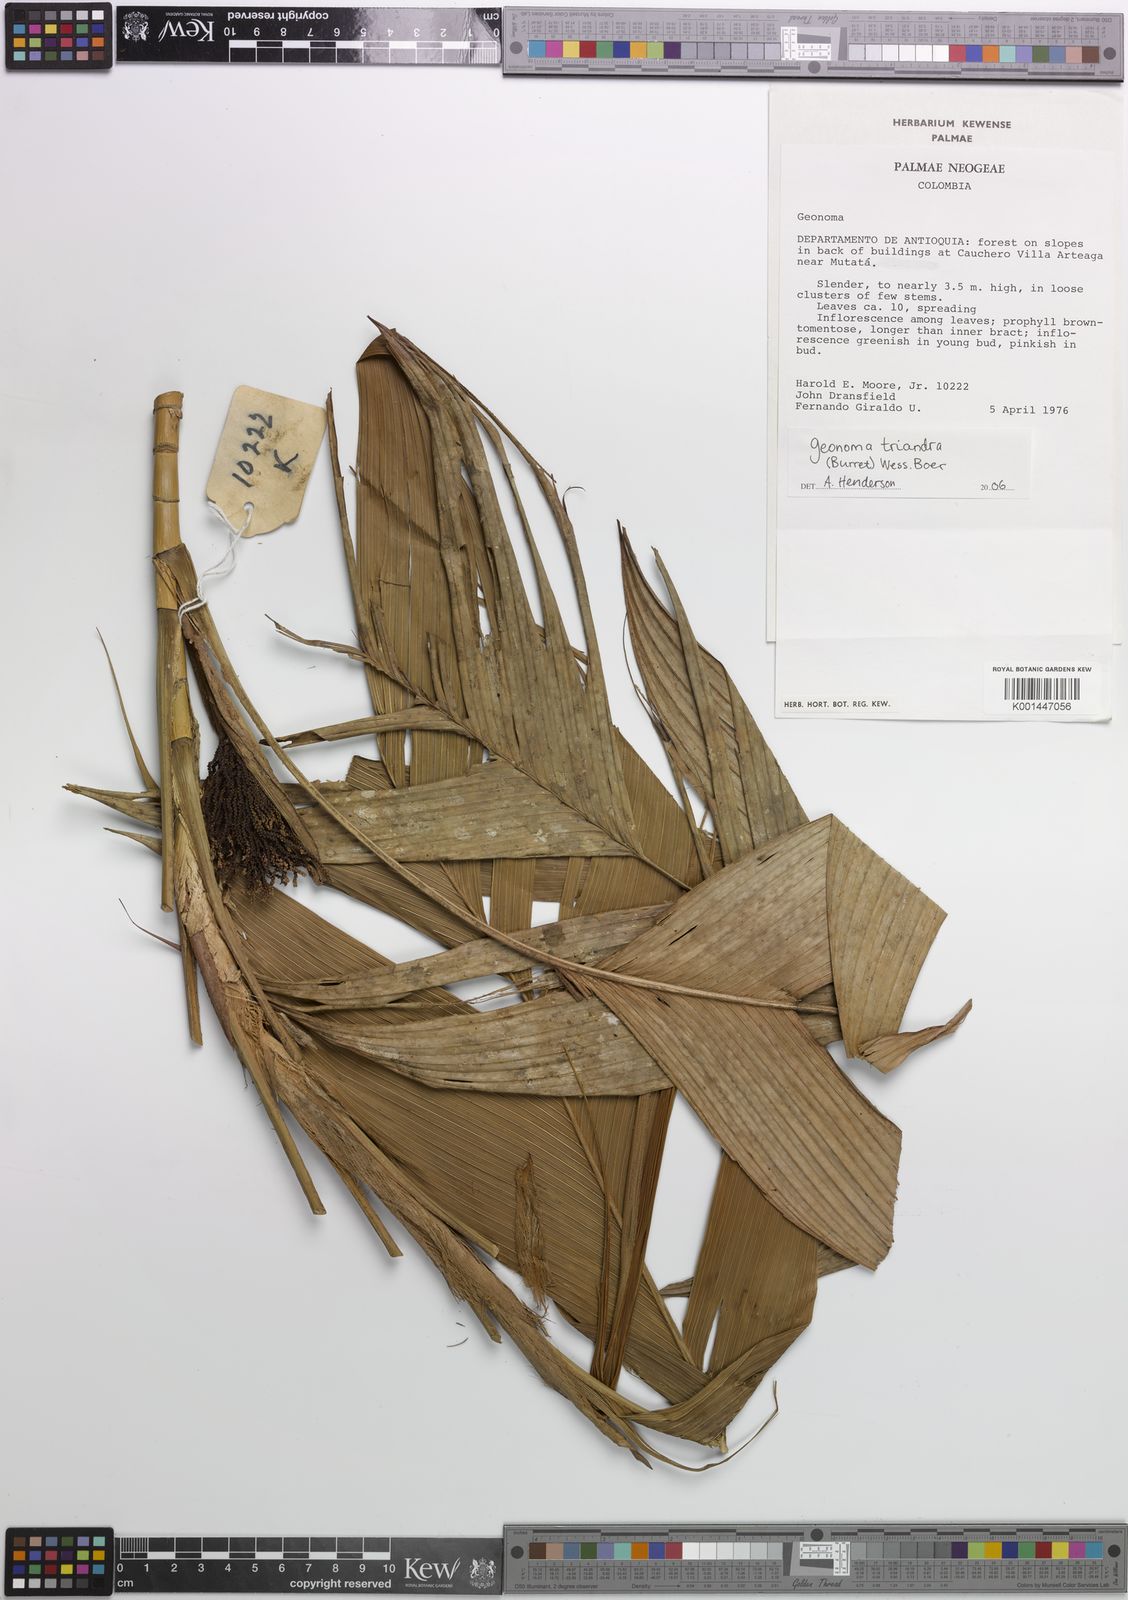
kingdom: Plantae
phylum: Tracheophyta
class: Liliopsida
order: Arecales
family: Arecaceae
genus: Geonoma
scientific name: Geonoma triandra
